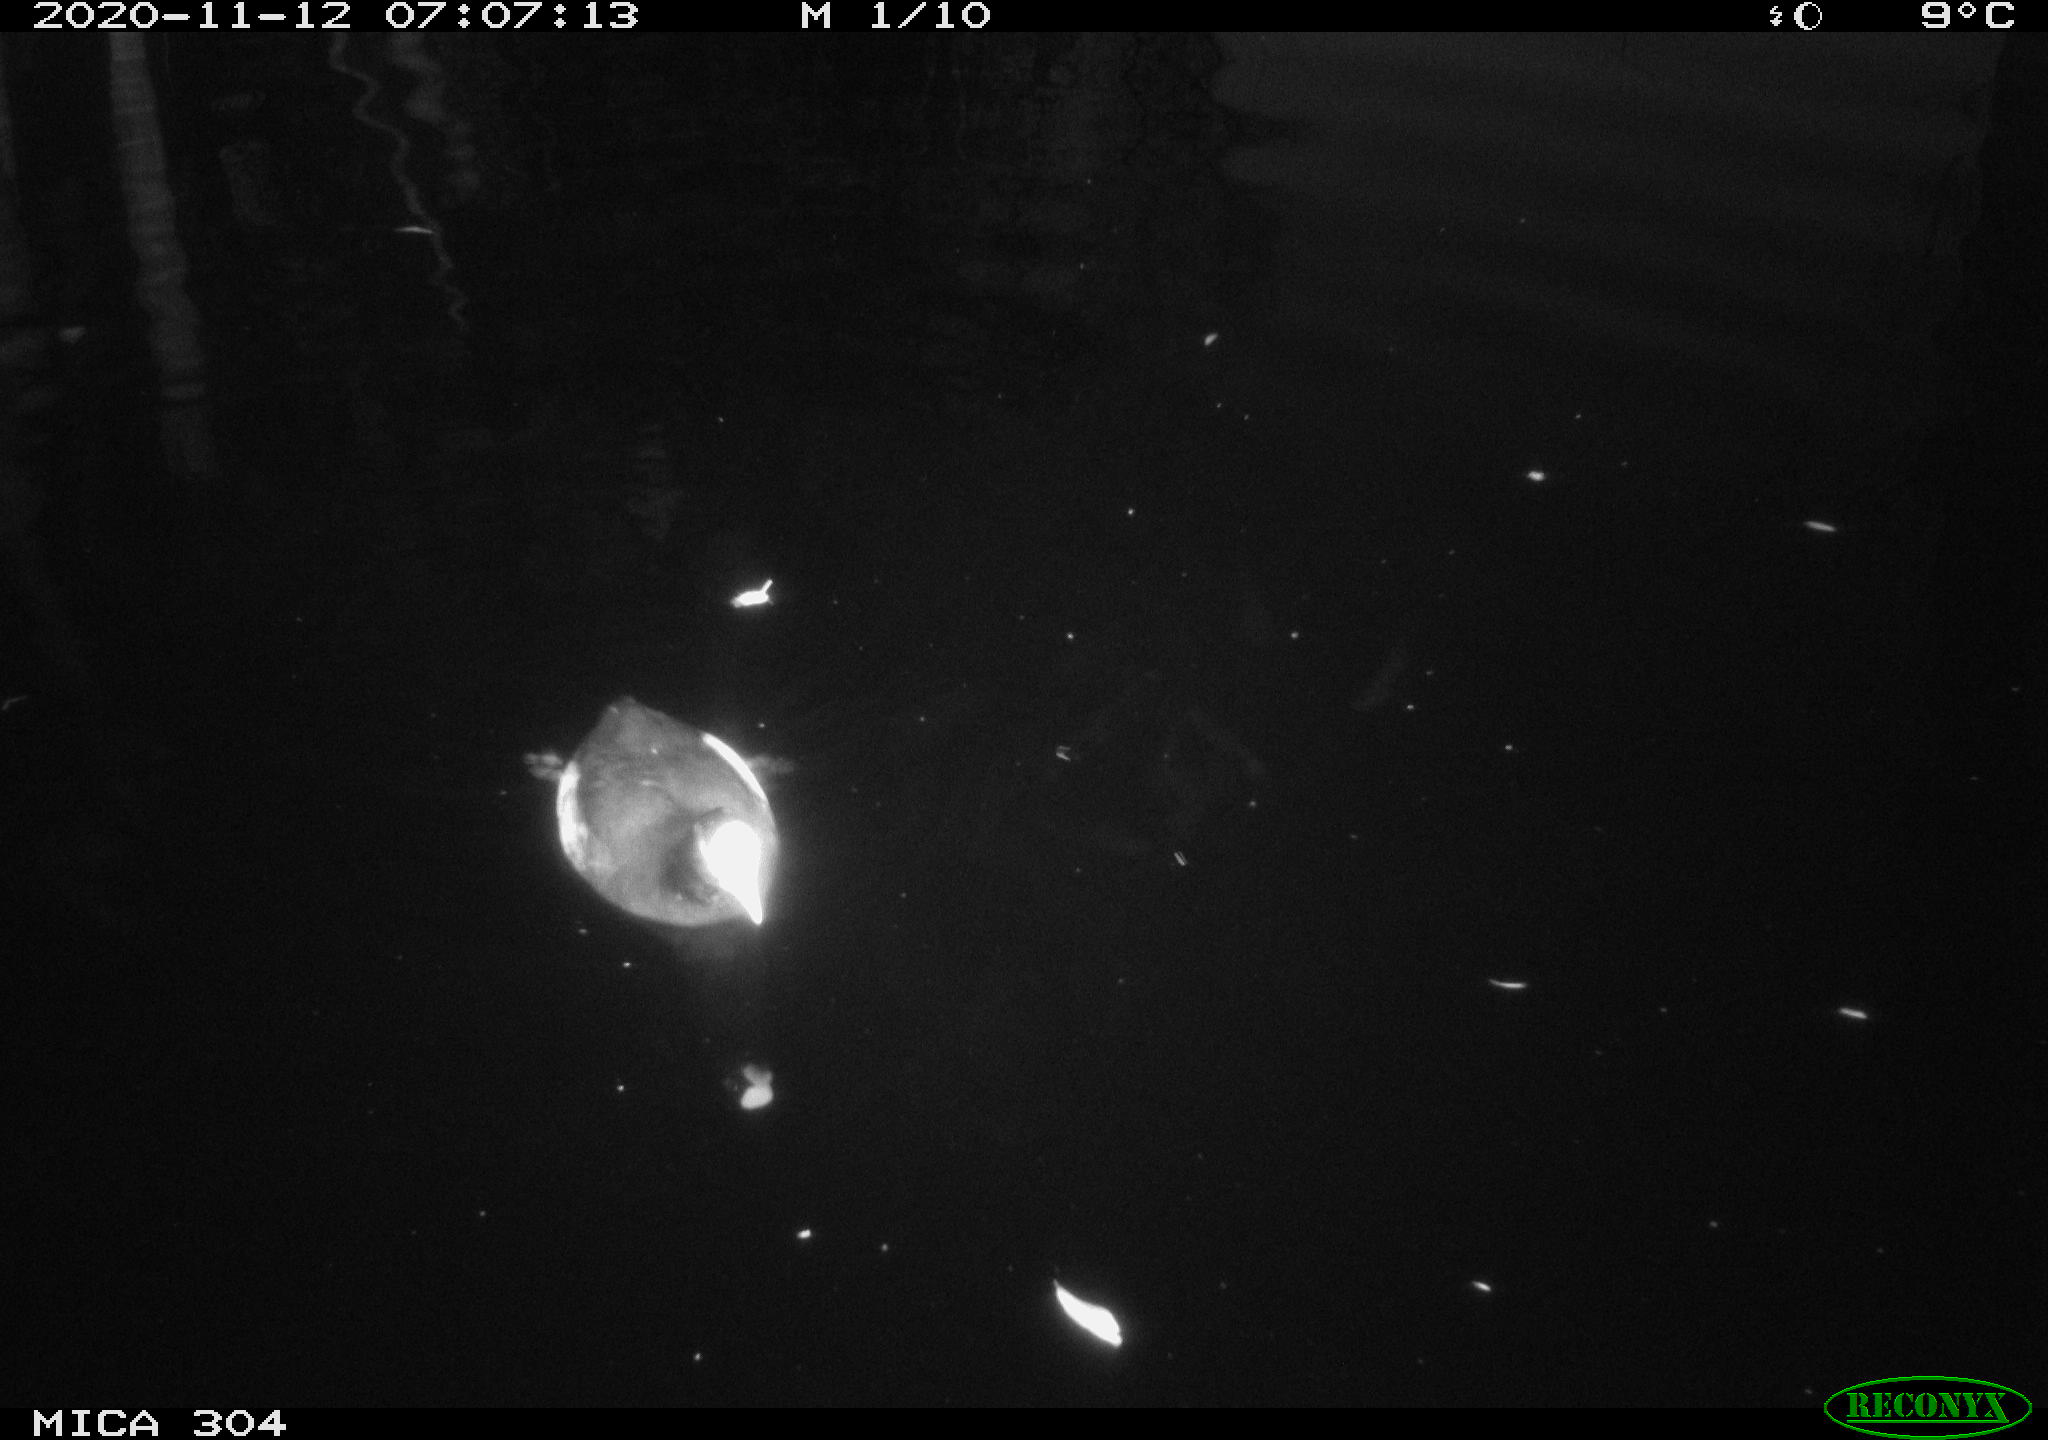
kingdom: Animalia
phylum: Chordata
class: Aves
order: Gruiformes
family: Rallidae
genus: Gallinula
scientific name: Gallinula chloropus
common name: Common moorhen
